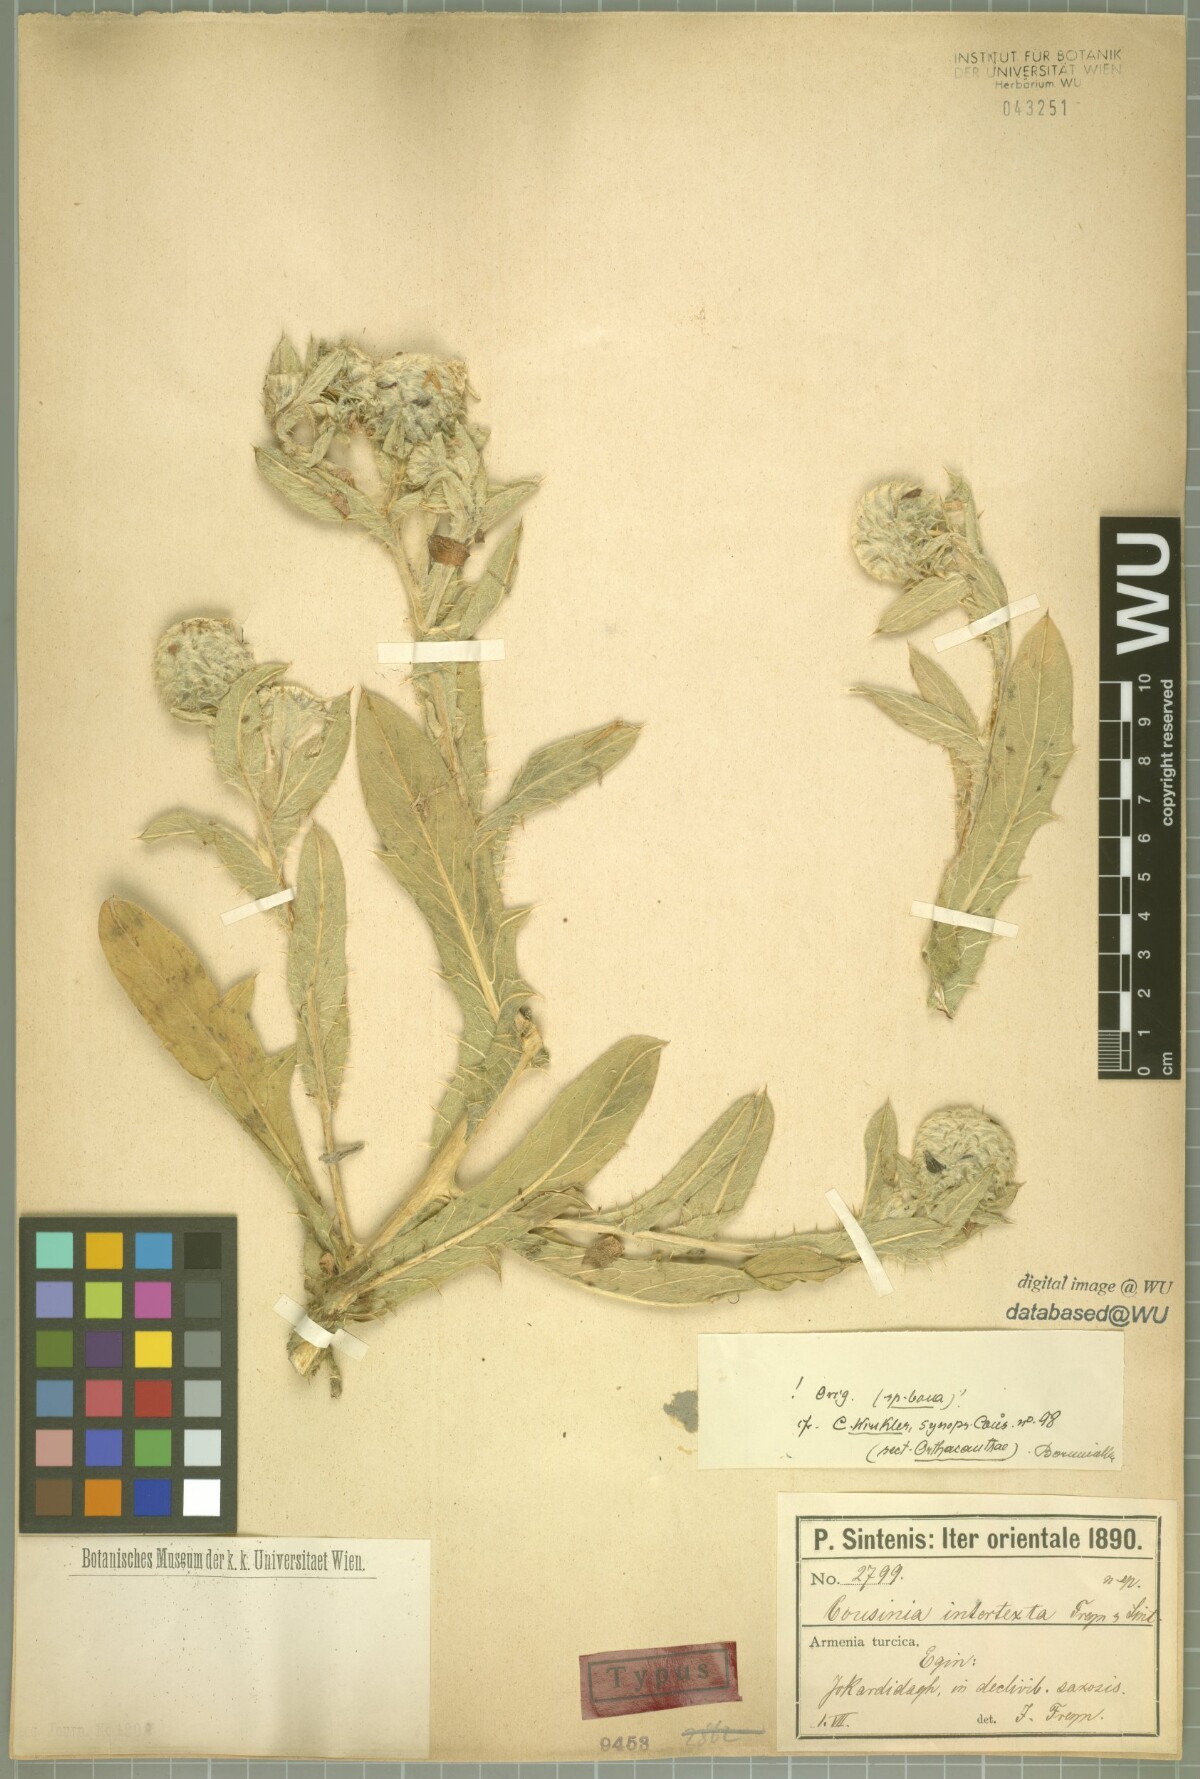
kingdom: Plantae
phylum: Tracheophyta
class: Magnoliopsida
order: Asterales
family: Asteraceae
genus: Cousinia
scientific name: Cousinia intertexta
